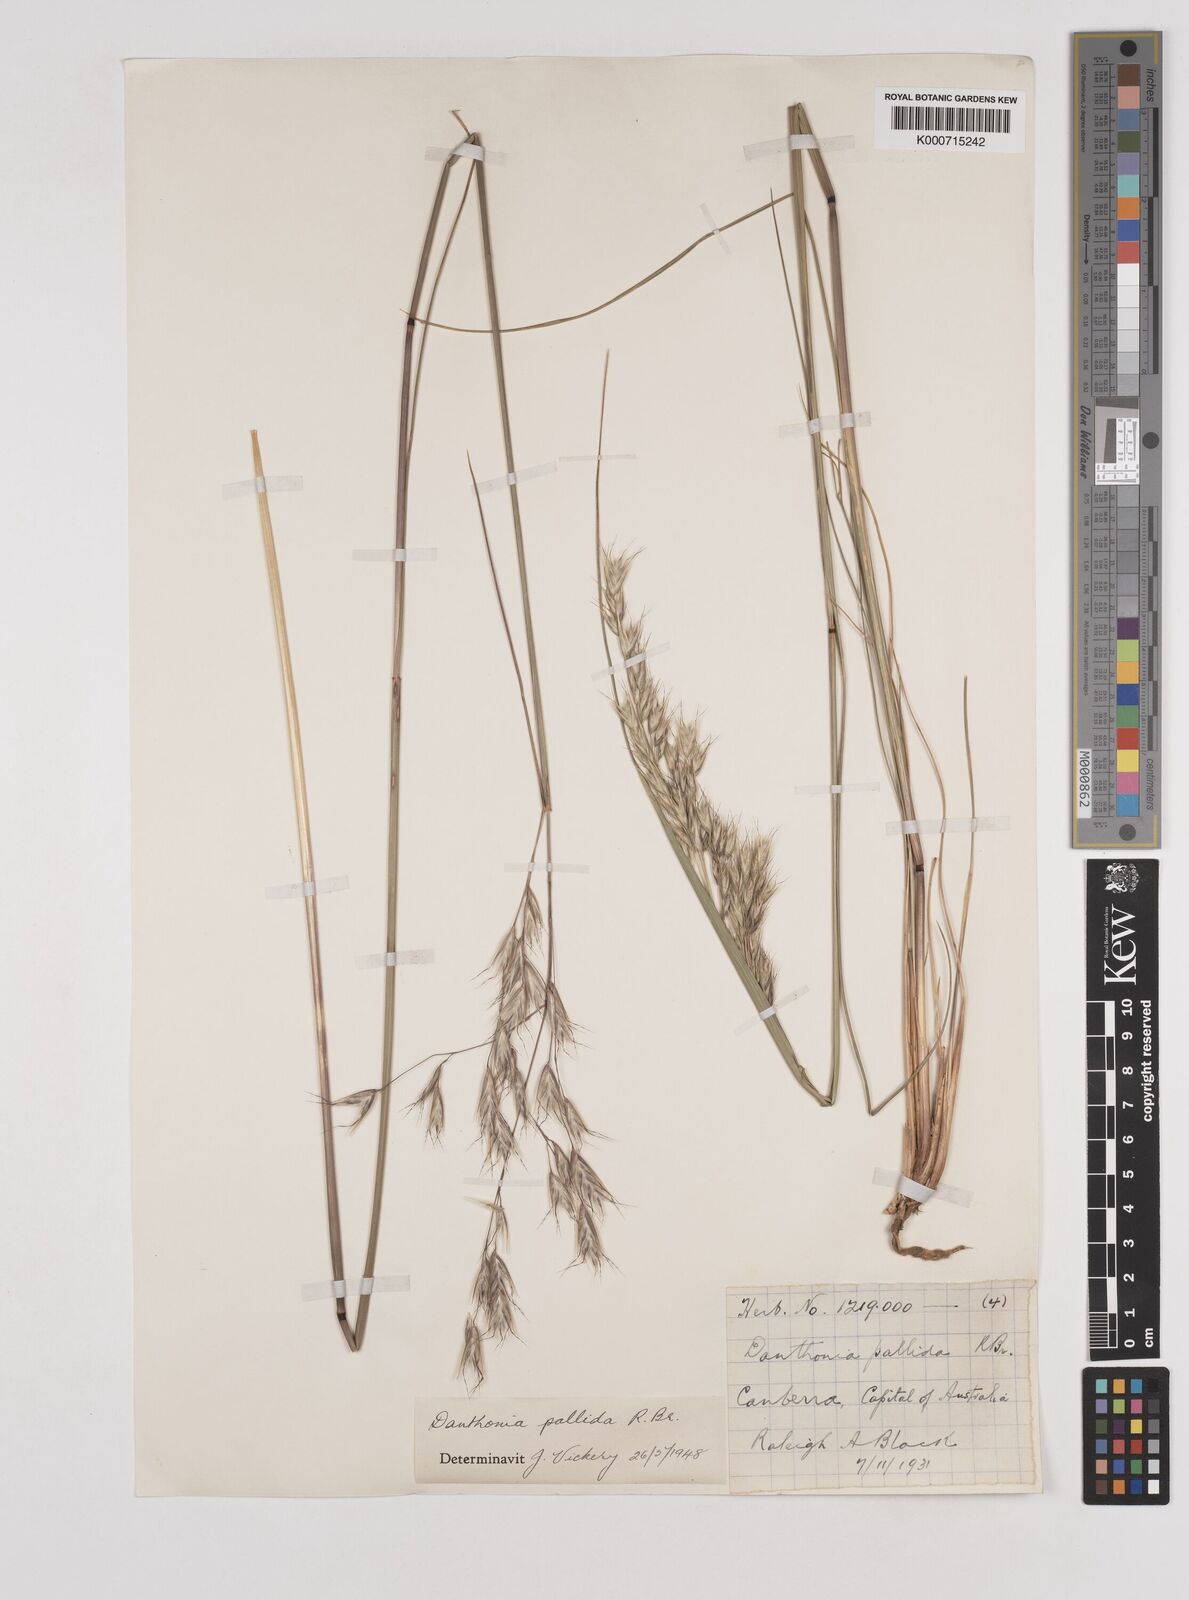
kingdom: Plantae
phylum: Tracheophyta
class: Liliopsida
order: Poales
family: Poaceae
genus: Rytidosperma
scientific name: Rytidosperma
